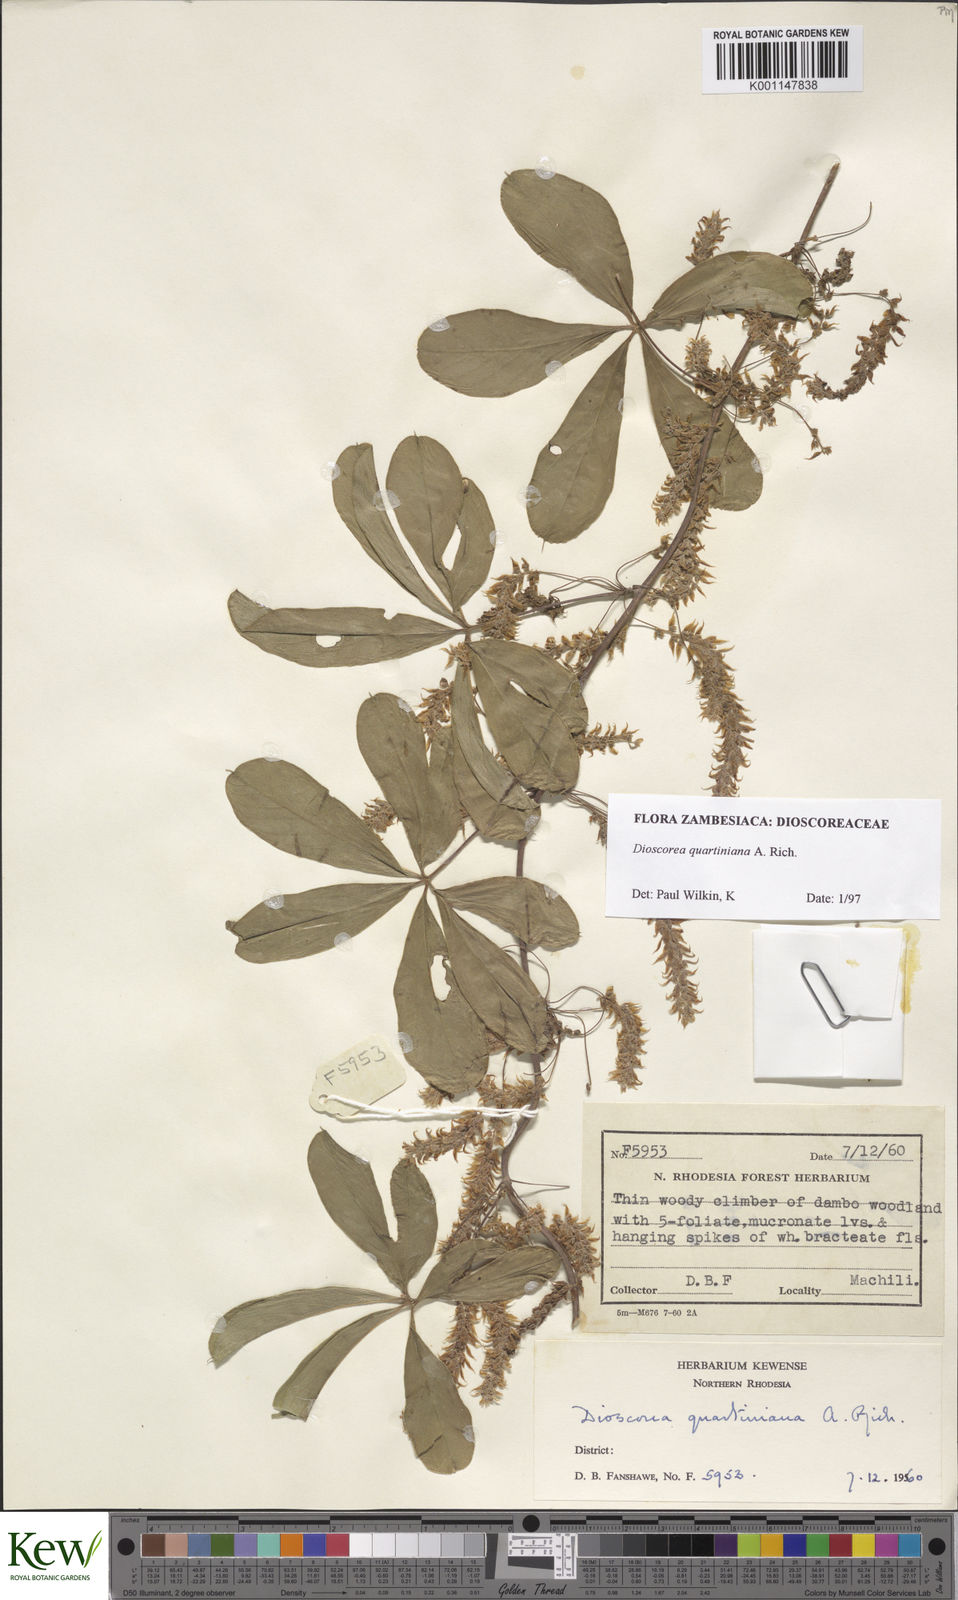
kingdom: Plantae
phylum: Tracheophyta
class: Liliopsida
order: Dioscoreales
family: Dioscoreaceae
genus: Dioscorea
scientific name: Dioscorea quartiniana
